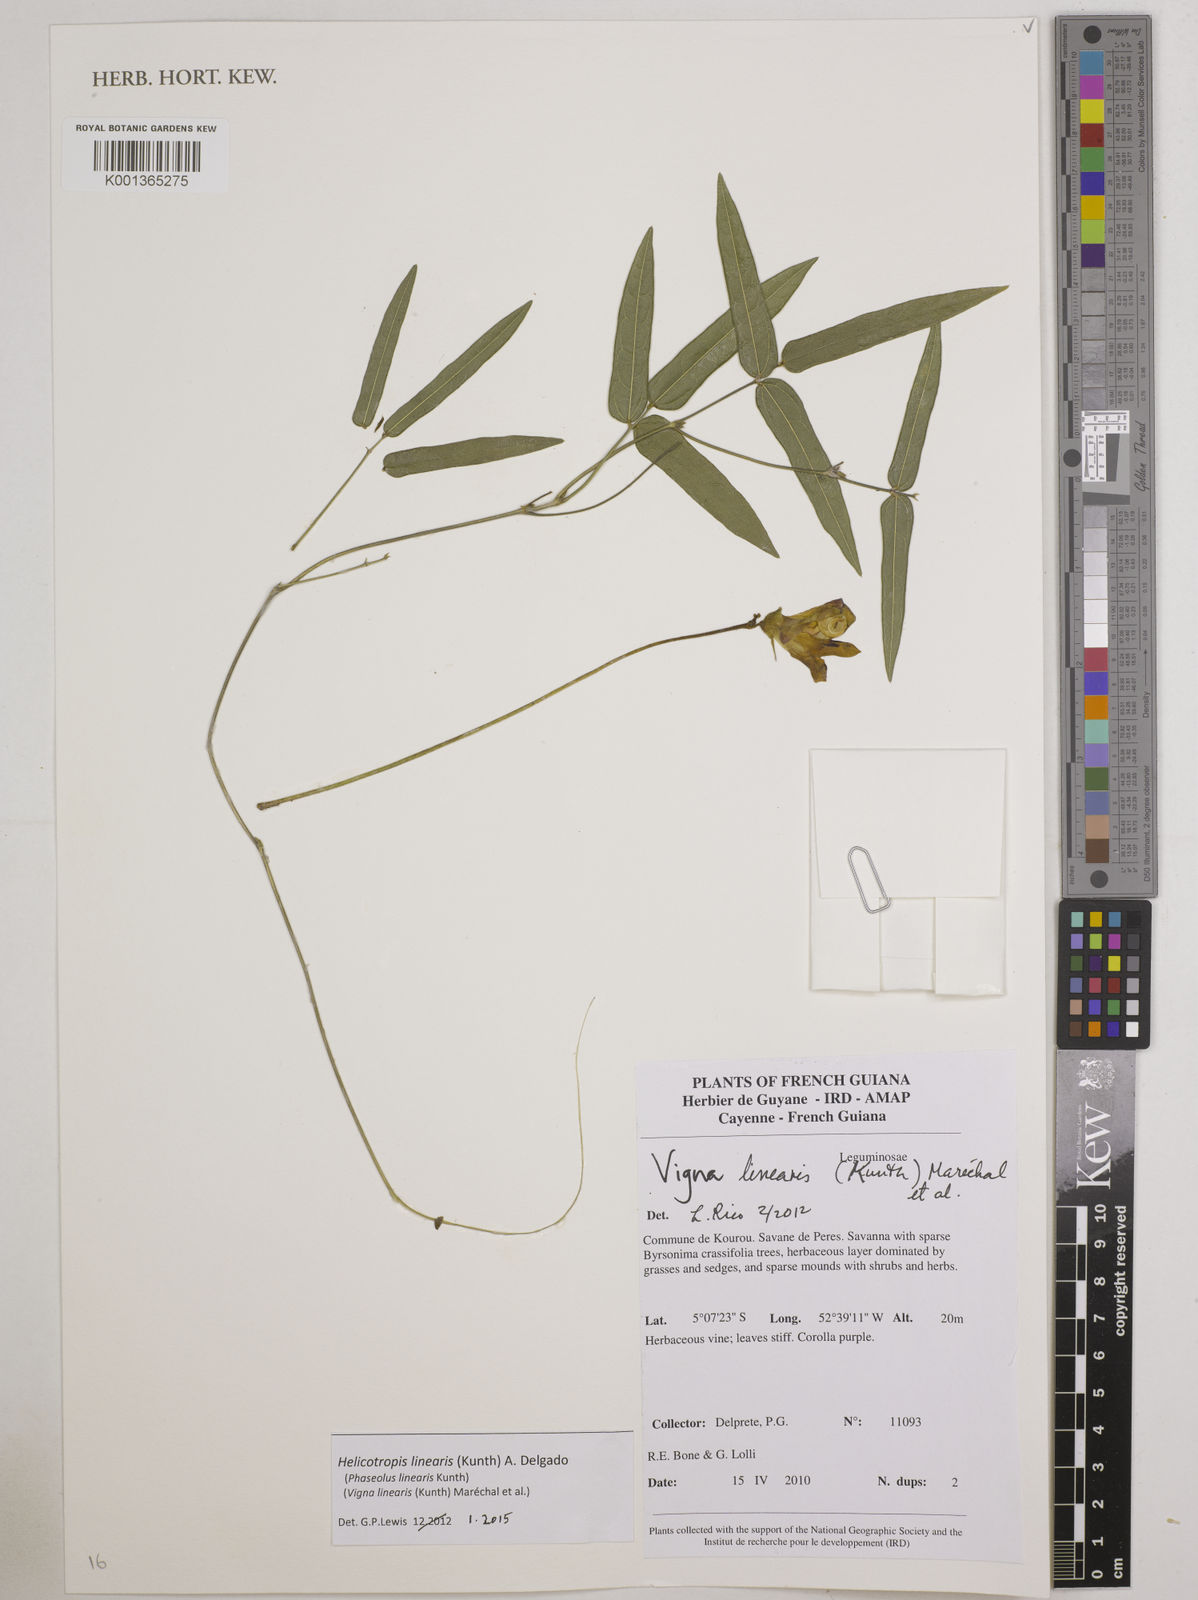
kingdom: Plantae
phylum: Tracheophyta
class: Magnoliopsida
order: Fabales
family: Fabaceae
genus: Helicotropis
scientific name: Helicotropis linearis
